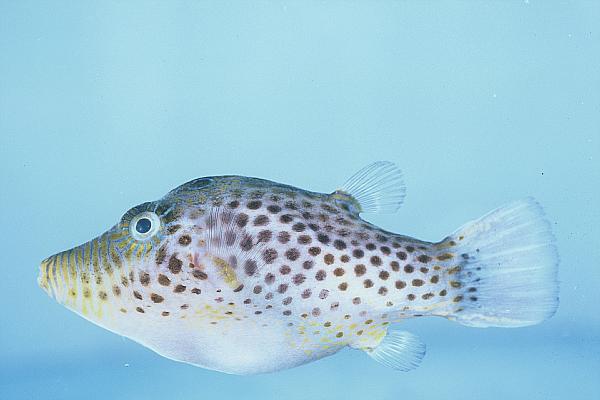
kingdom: Animalia
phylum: Chordata
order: Tetraodontiformes
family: Tetraodontidae
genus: Canthigaster
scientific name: Canthigaster tyleri
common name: Tyler's toby
